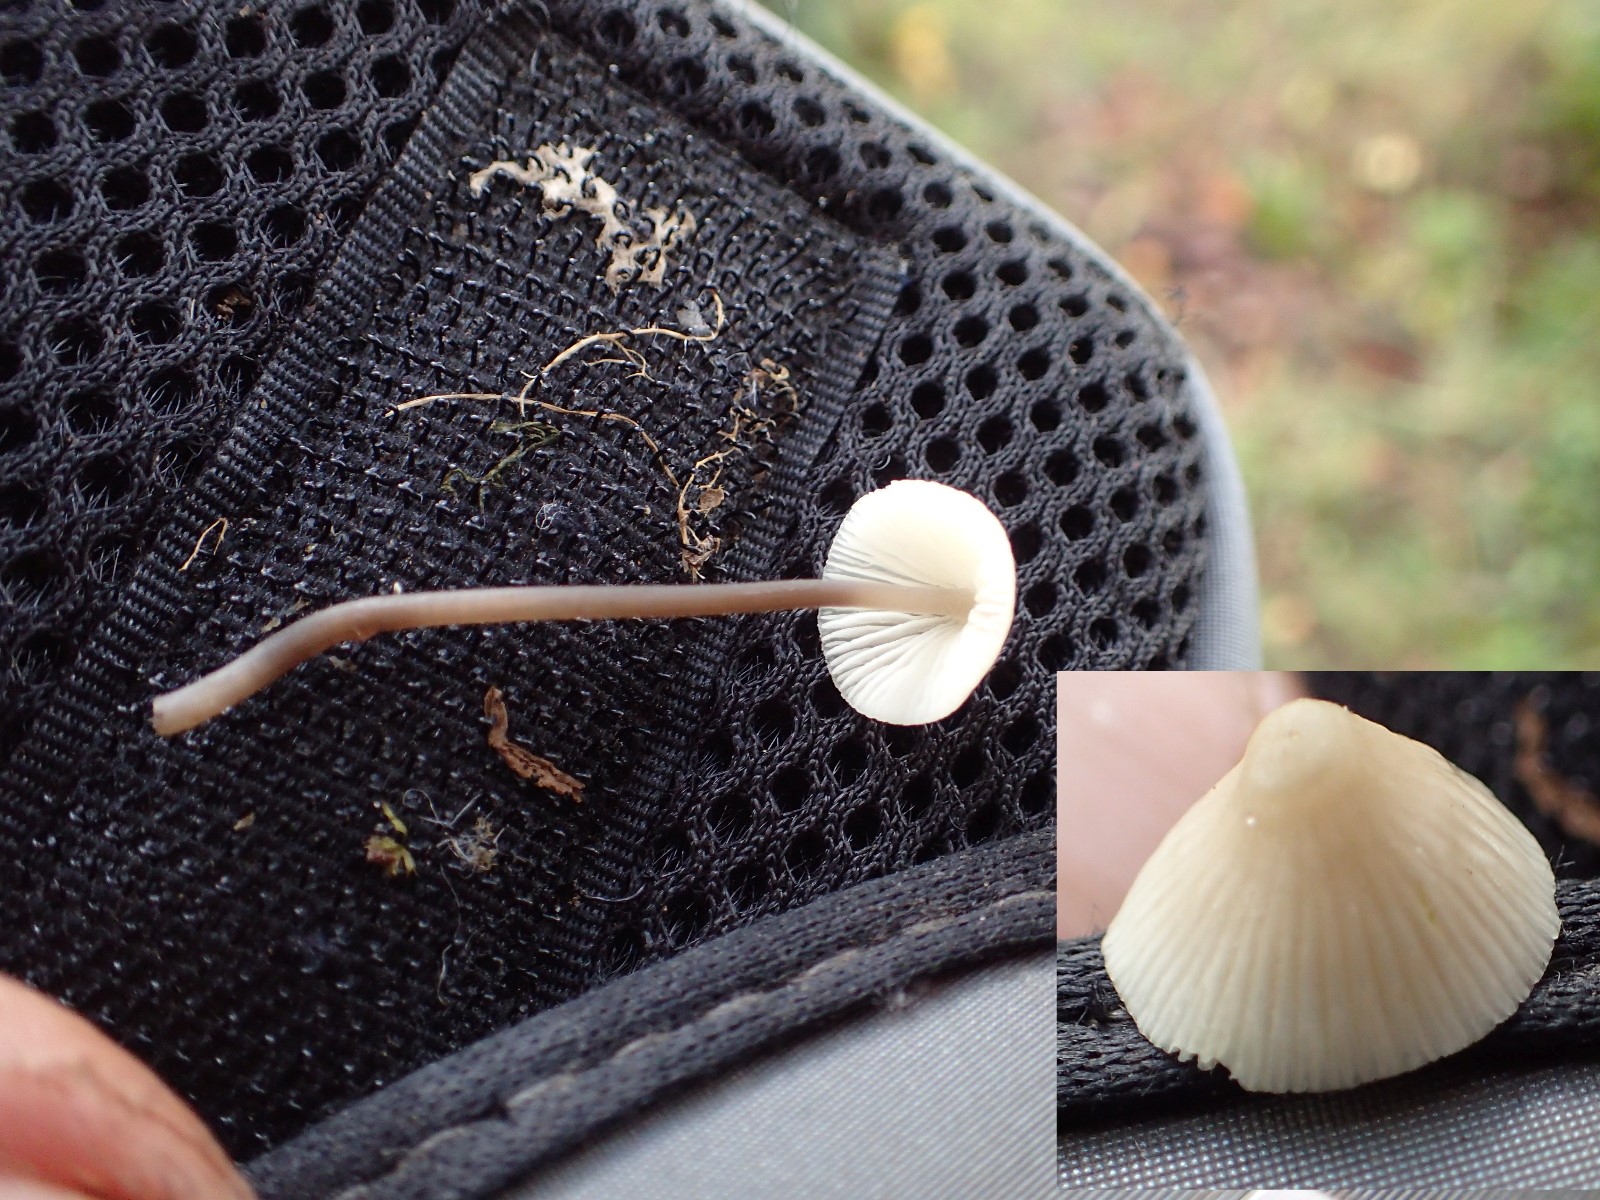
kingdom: Fungi
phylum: Basidiomycota
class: Agaricomycetes
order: Agaricales
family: Mycenaceae
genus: Mycena
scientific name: Mycena
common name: huesvamp
